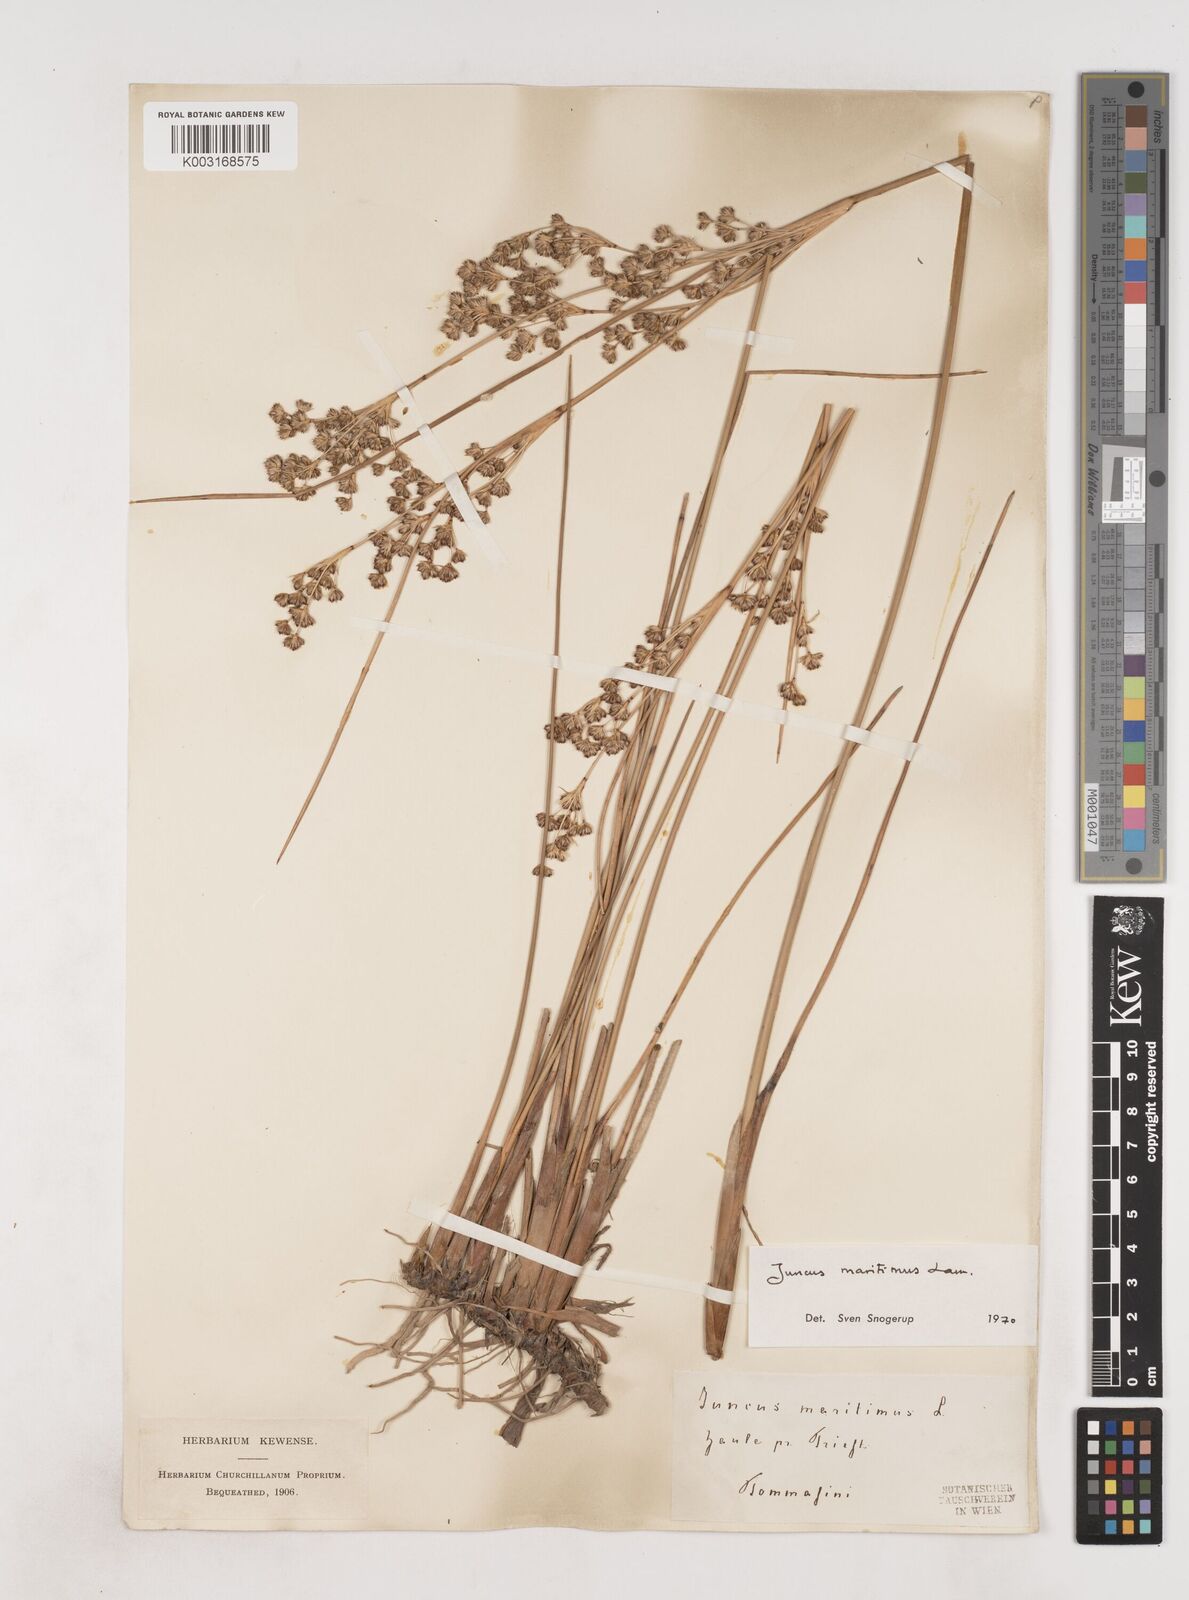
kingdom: Plantae
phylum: Tracheophyta
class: Liliopsida
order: Poales
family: Juncaceae
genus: Juncus
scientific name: Juncus maritimus
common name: Sea rush
